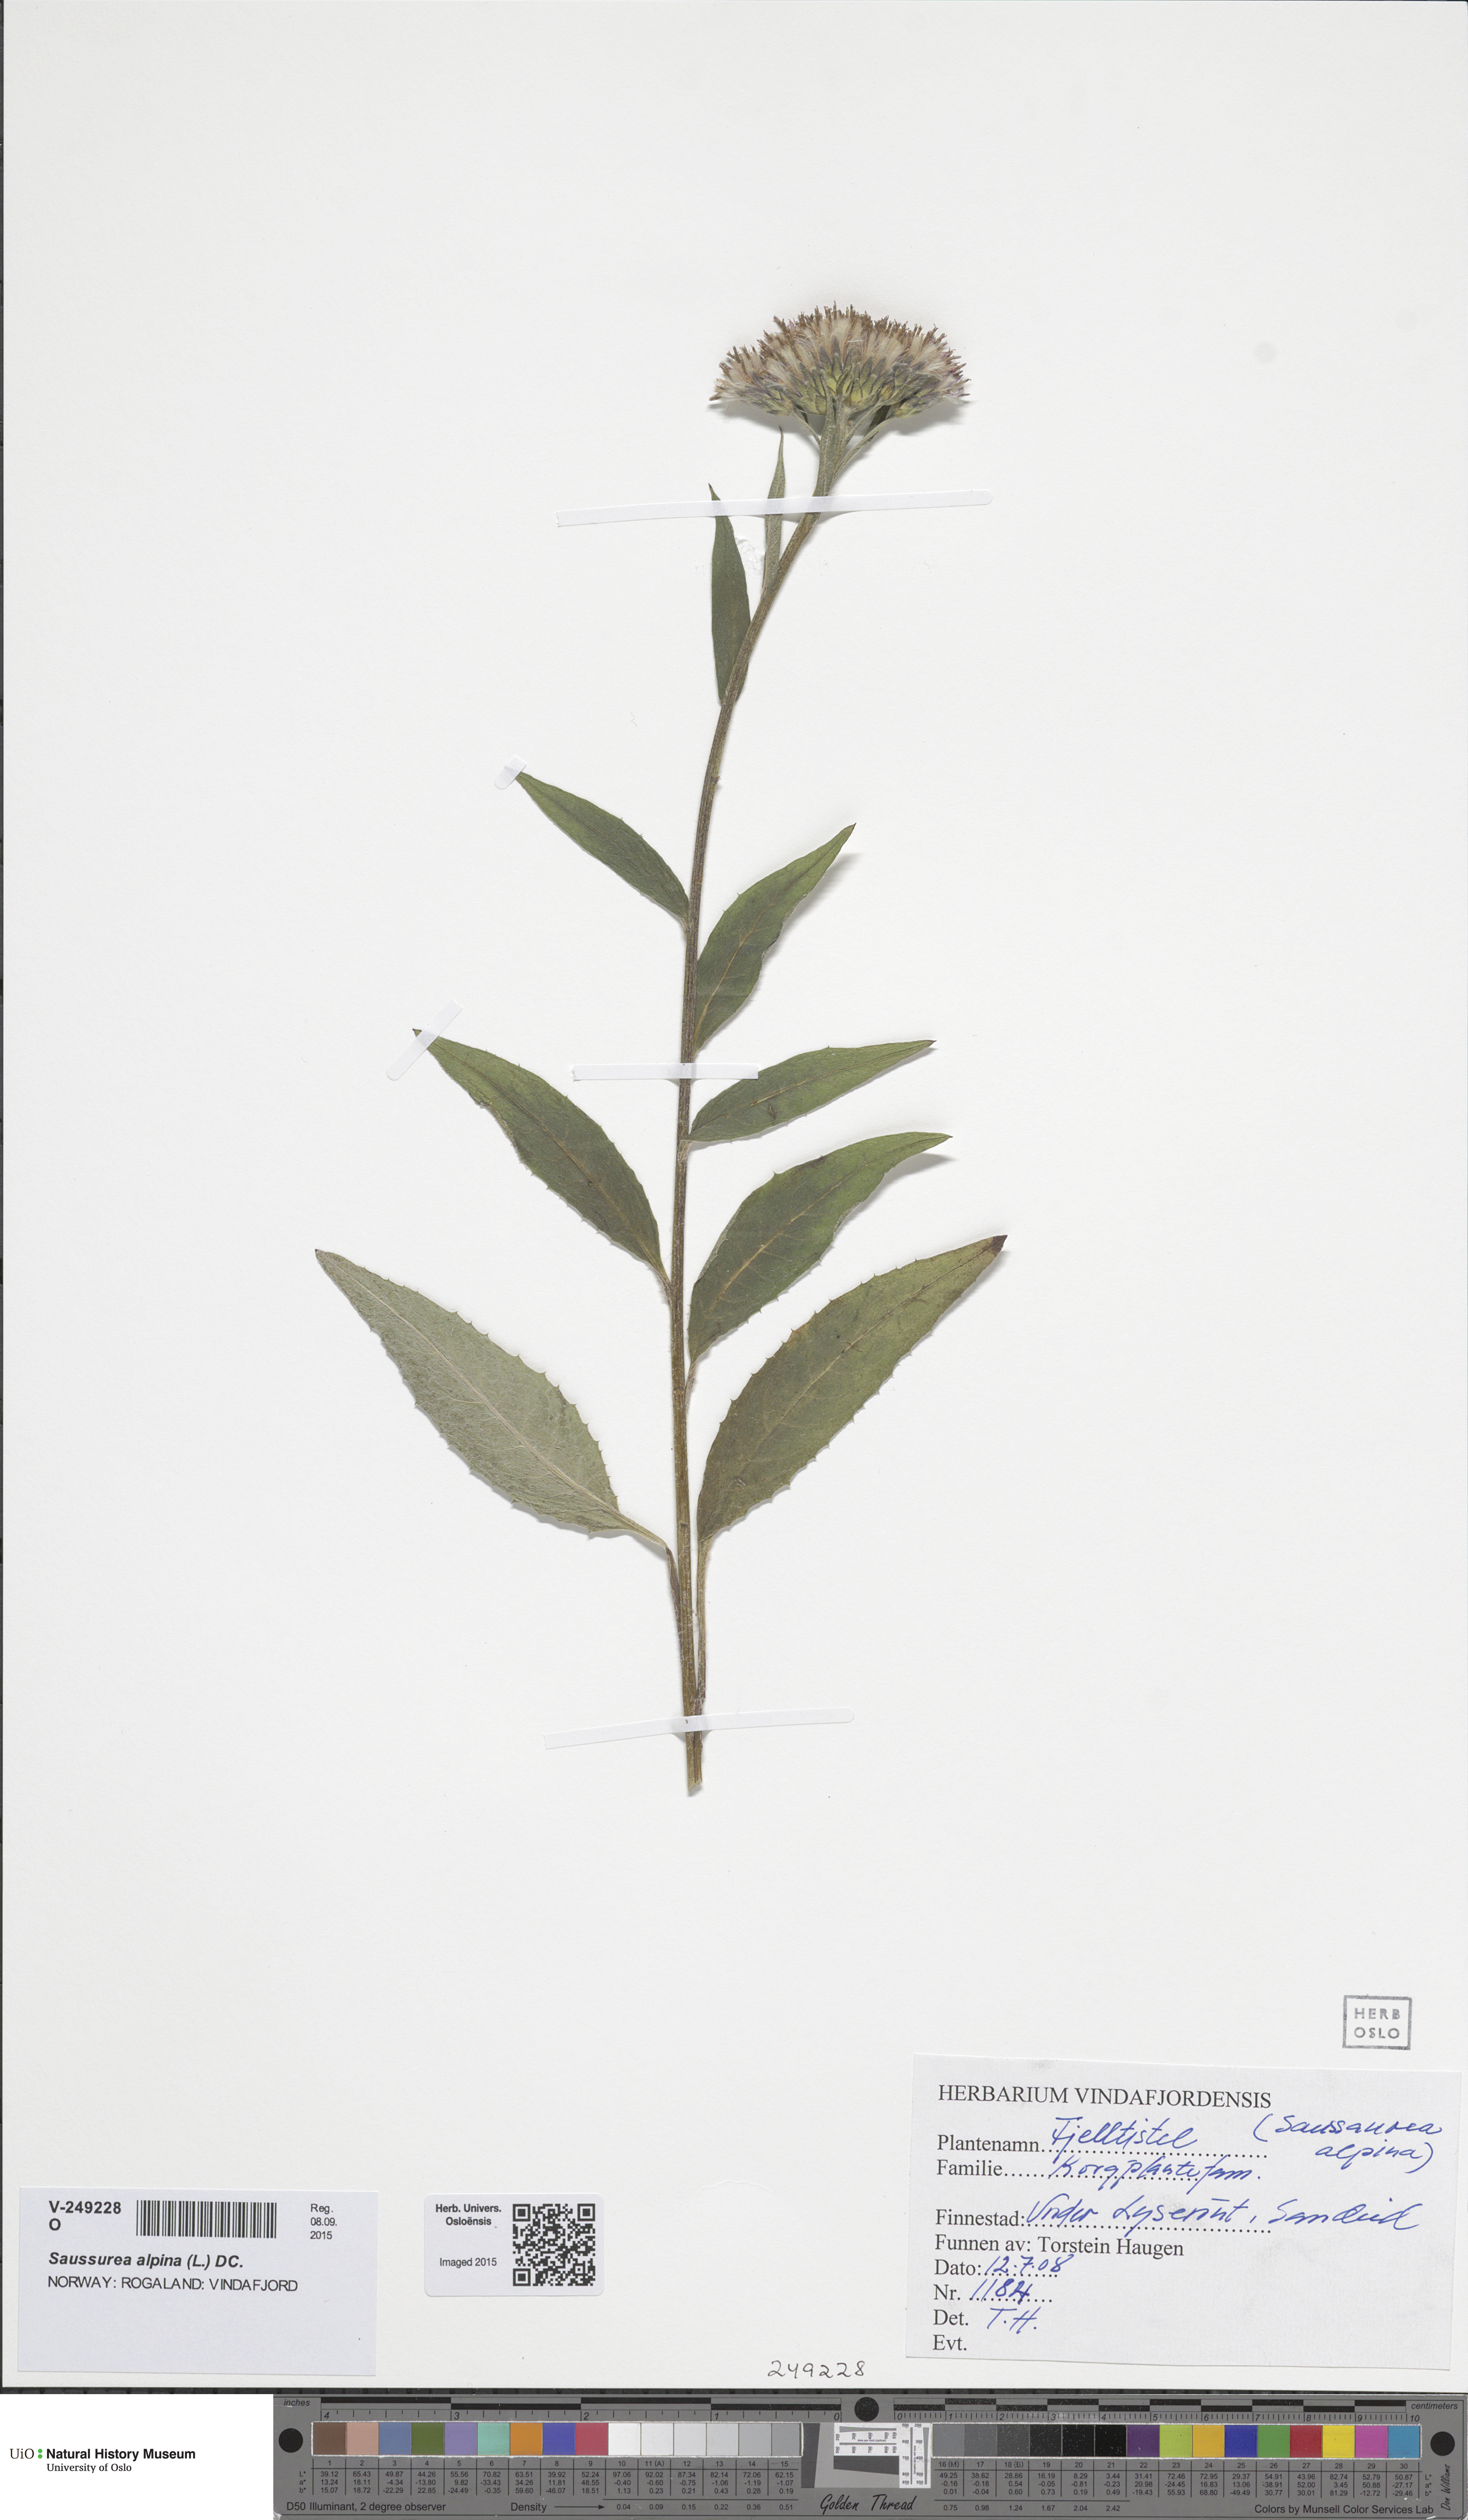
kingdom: Plantae
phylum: Tracheophyta
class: Magnoliopsida
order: Asterales
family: Asteraceae
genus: Saussurea
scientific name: Saussurea alpina
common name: Alpine saw-wort
